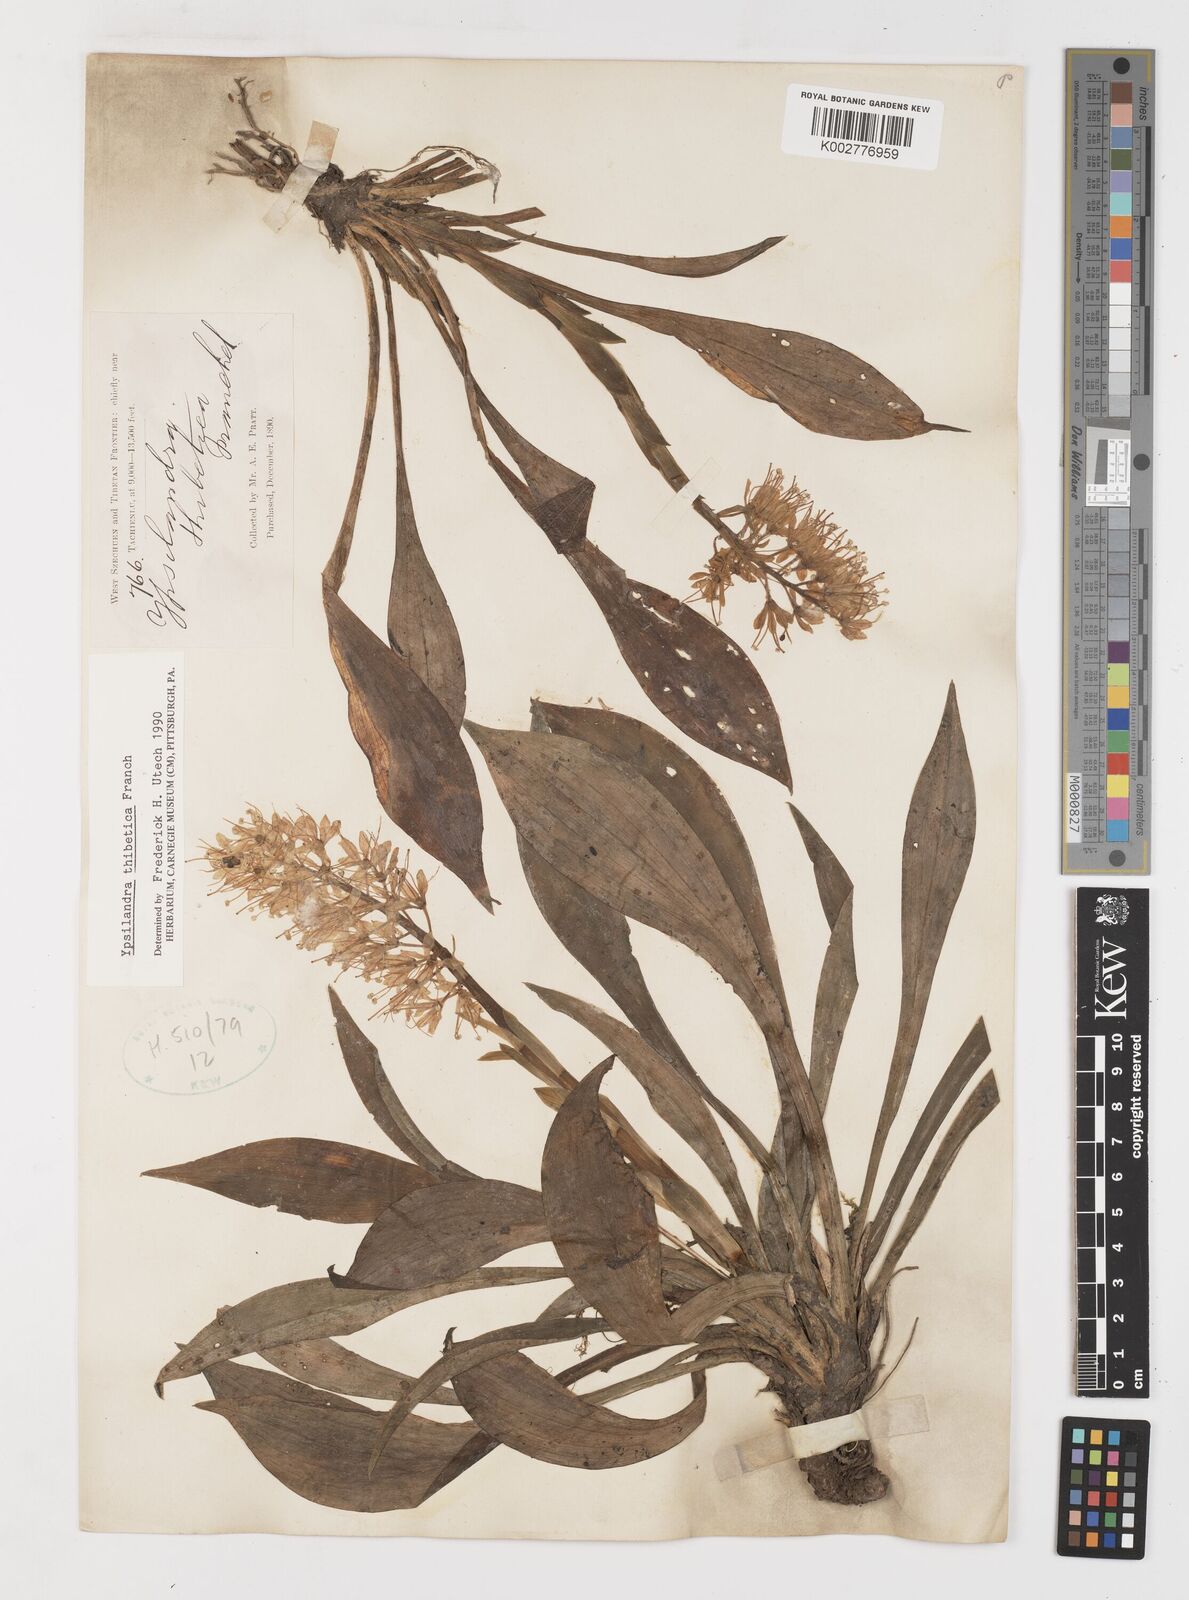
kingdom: Plantae
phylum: Tracheophyta
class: Liliopsida
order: Liliales
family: Melanthiaceae
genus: Helonias
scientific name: Helonias thibetica
